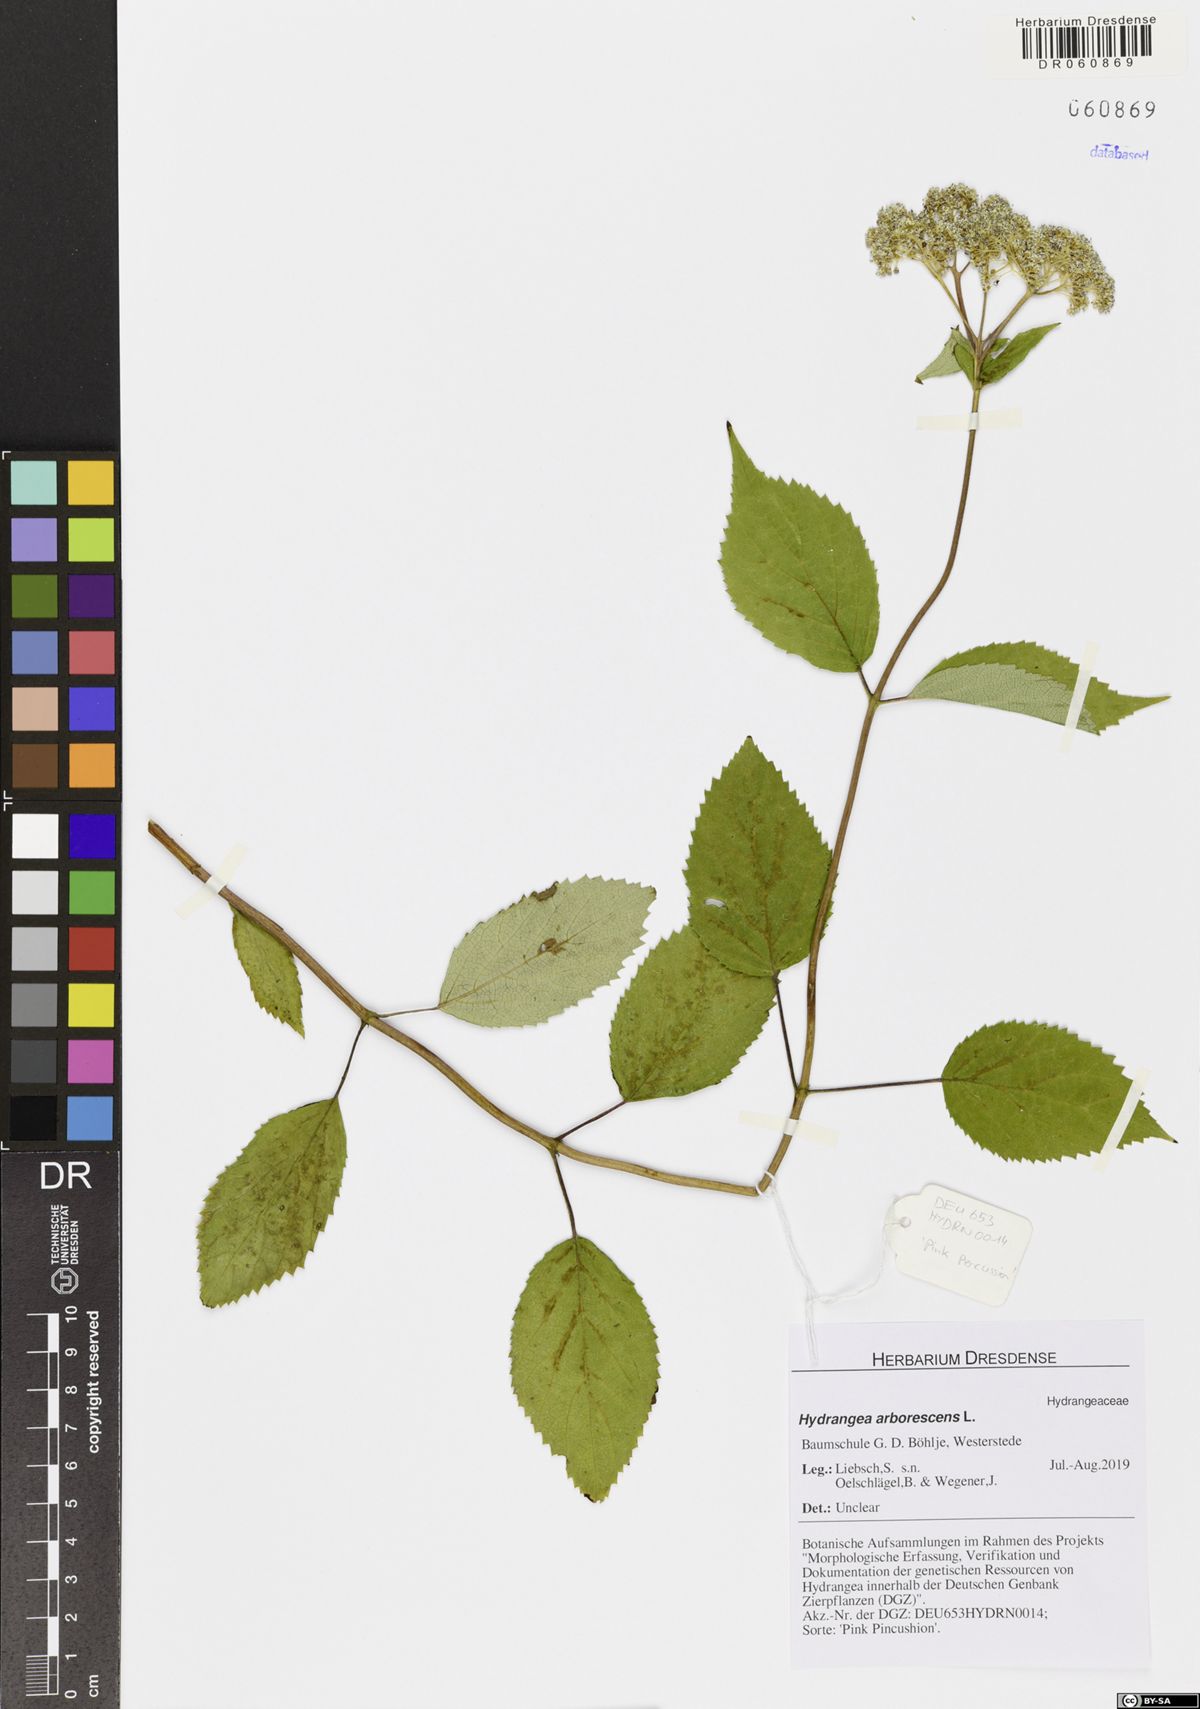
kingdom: Plantae
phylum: Tracheophyta
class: Magnoliopsida
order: Cornales
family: Hydrangeaceae
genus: Hydrangea
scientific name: Hydrangea arborescens
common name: Sevenbark
